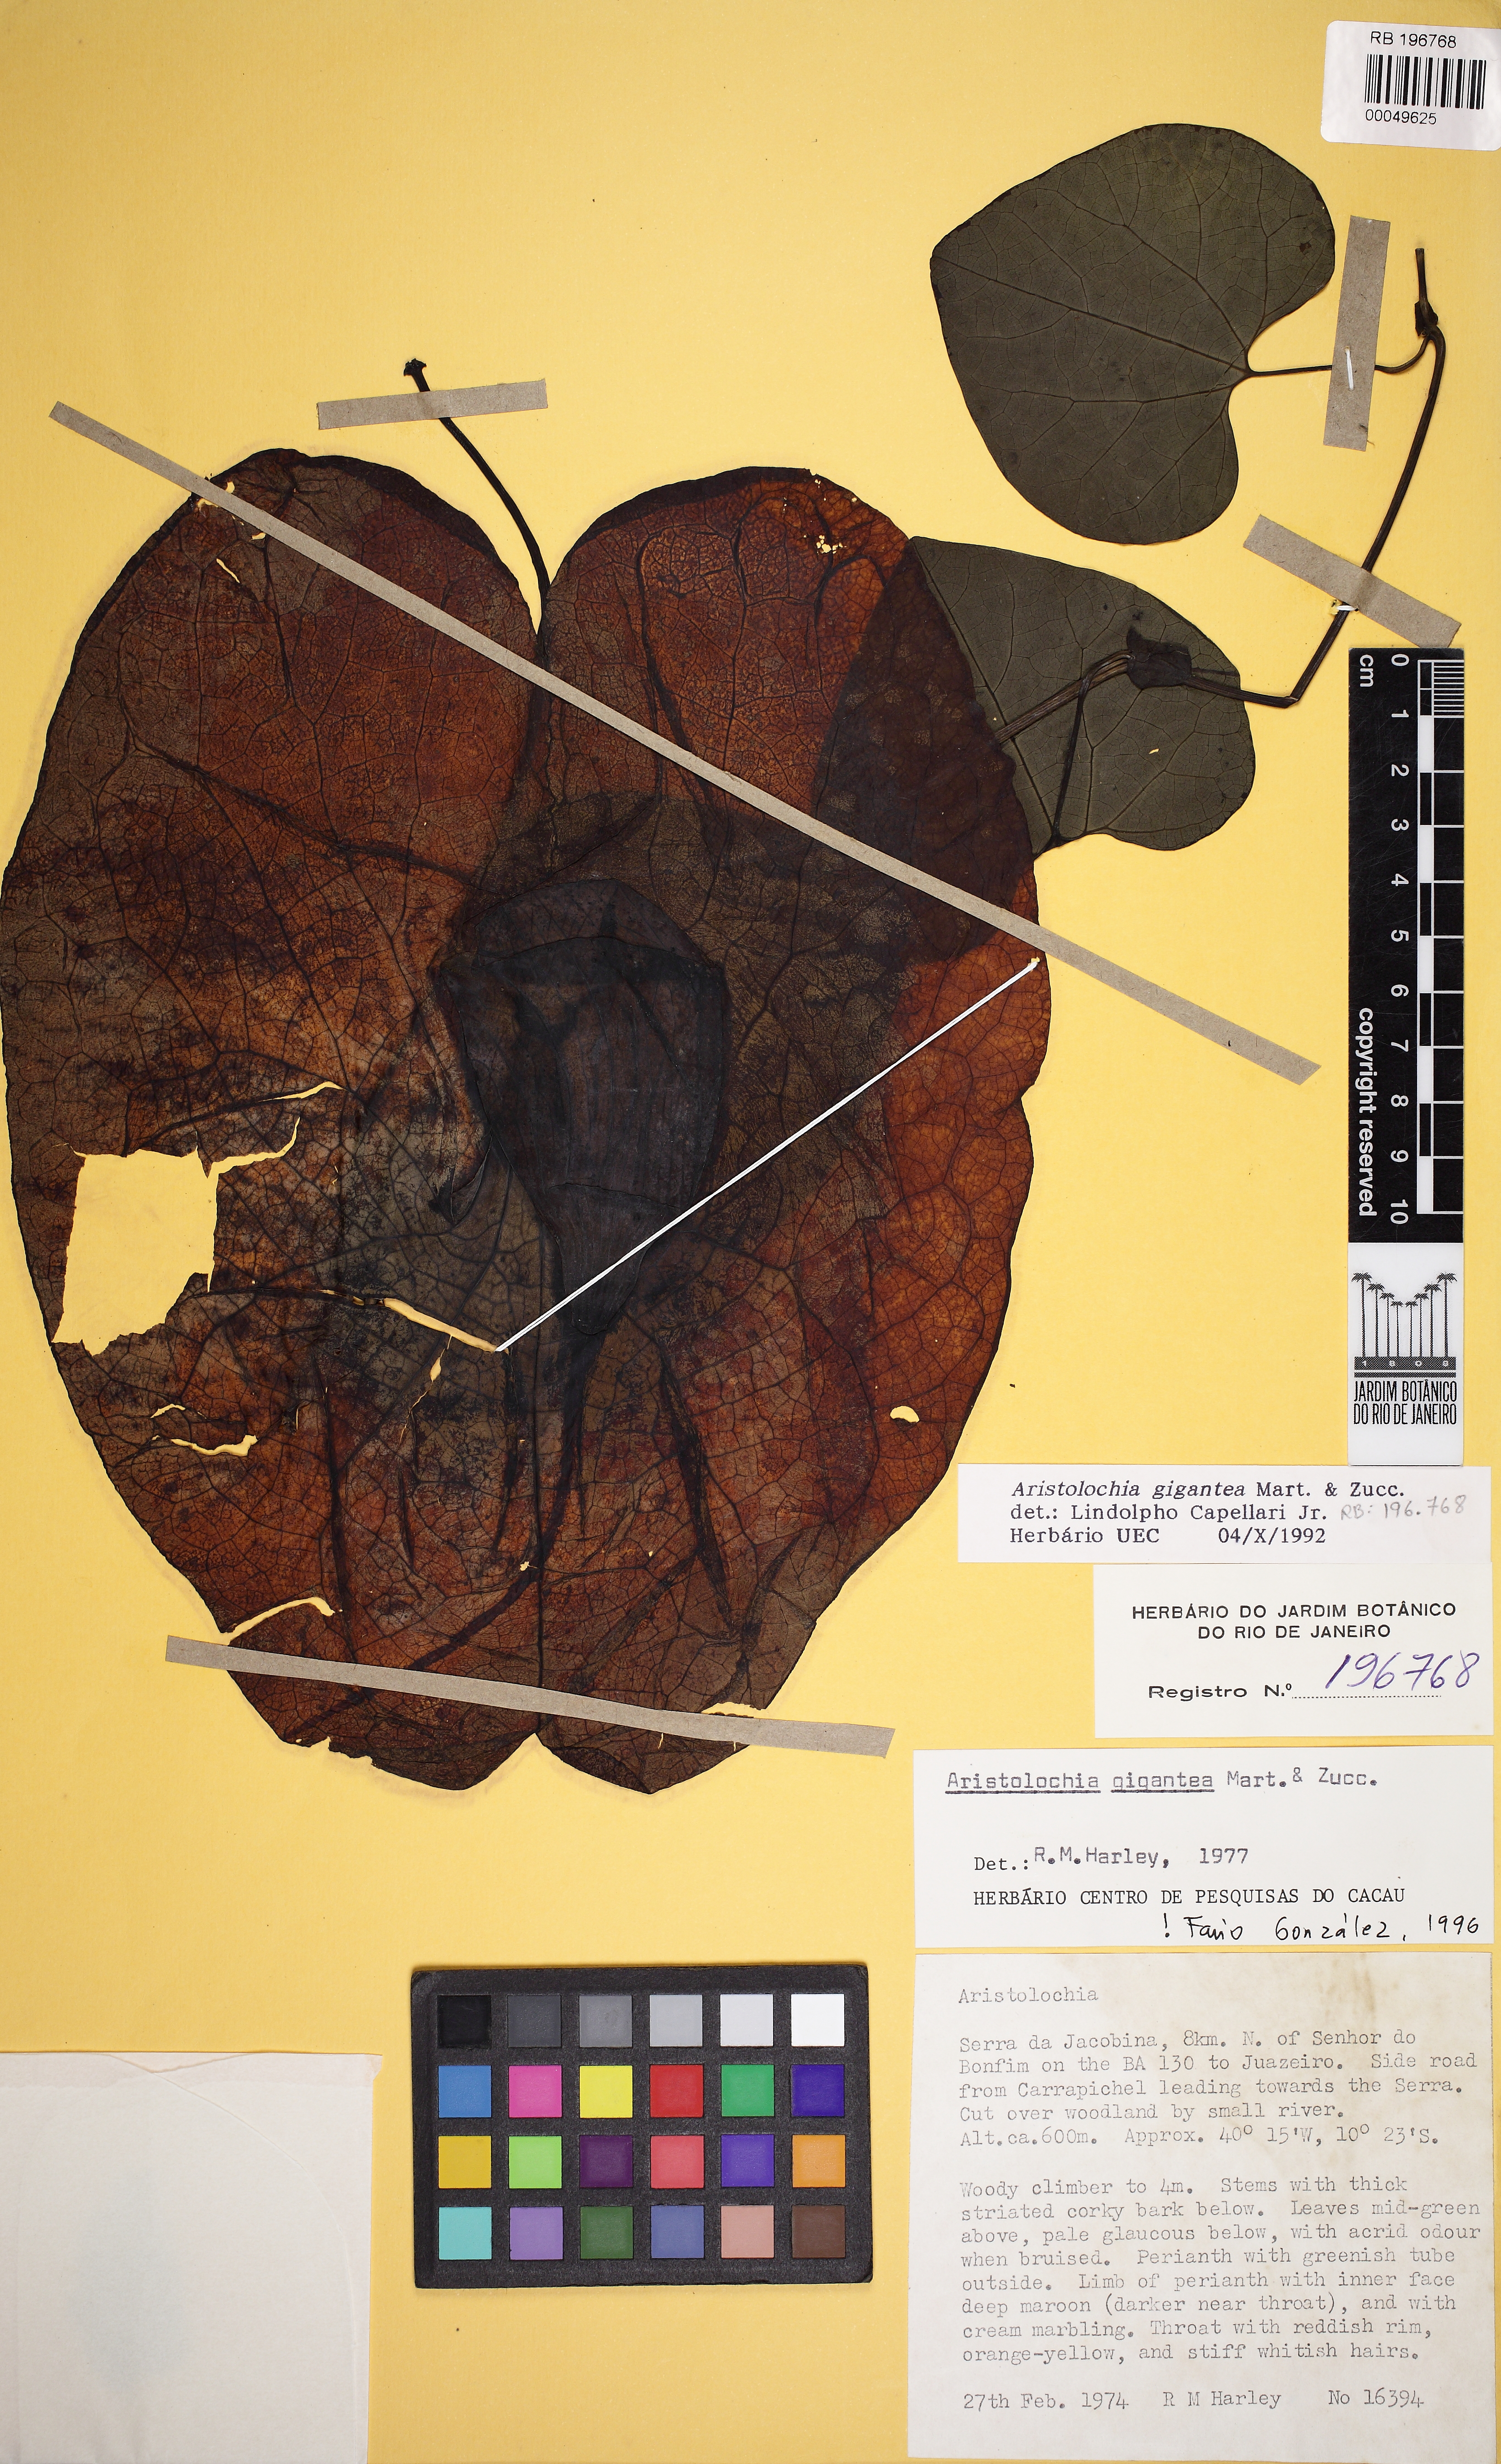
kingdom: Plantae
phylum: Tracheophyta
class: Magnoliopsida
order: Piperales
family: Aristolochiaceae
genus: Aristolochia
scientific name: Aristolochia gigantea
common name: Duckflower
